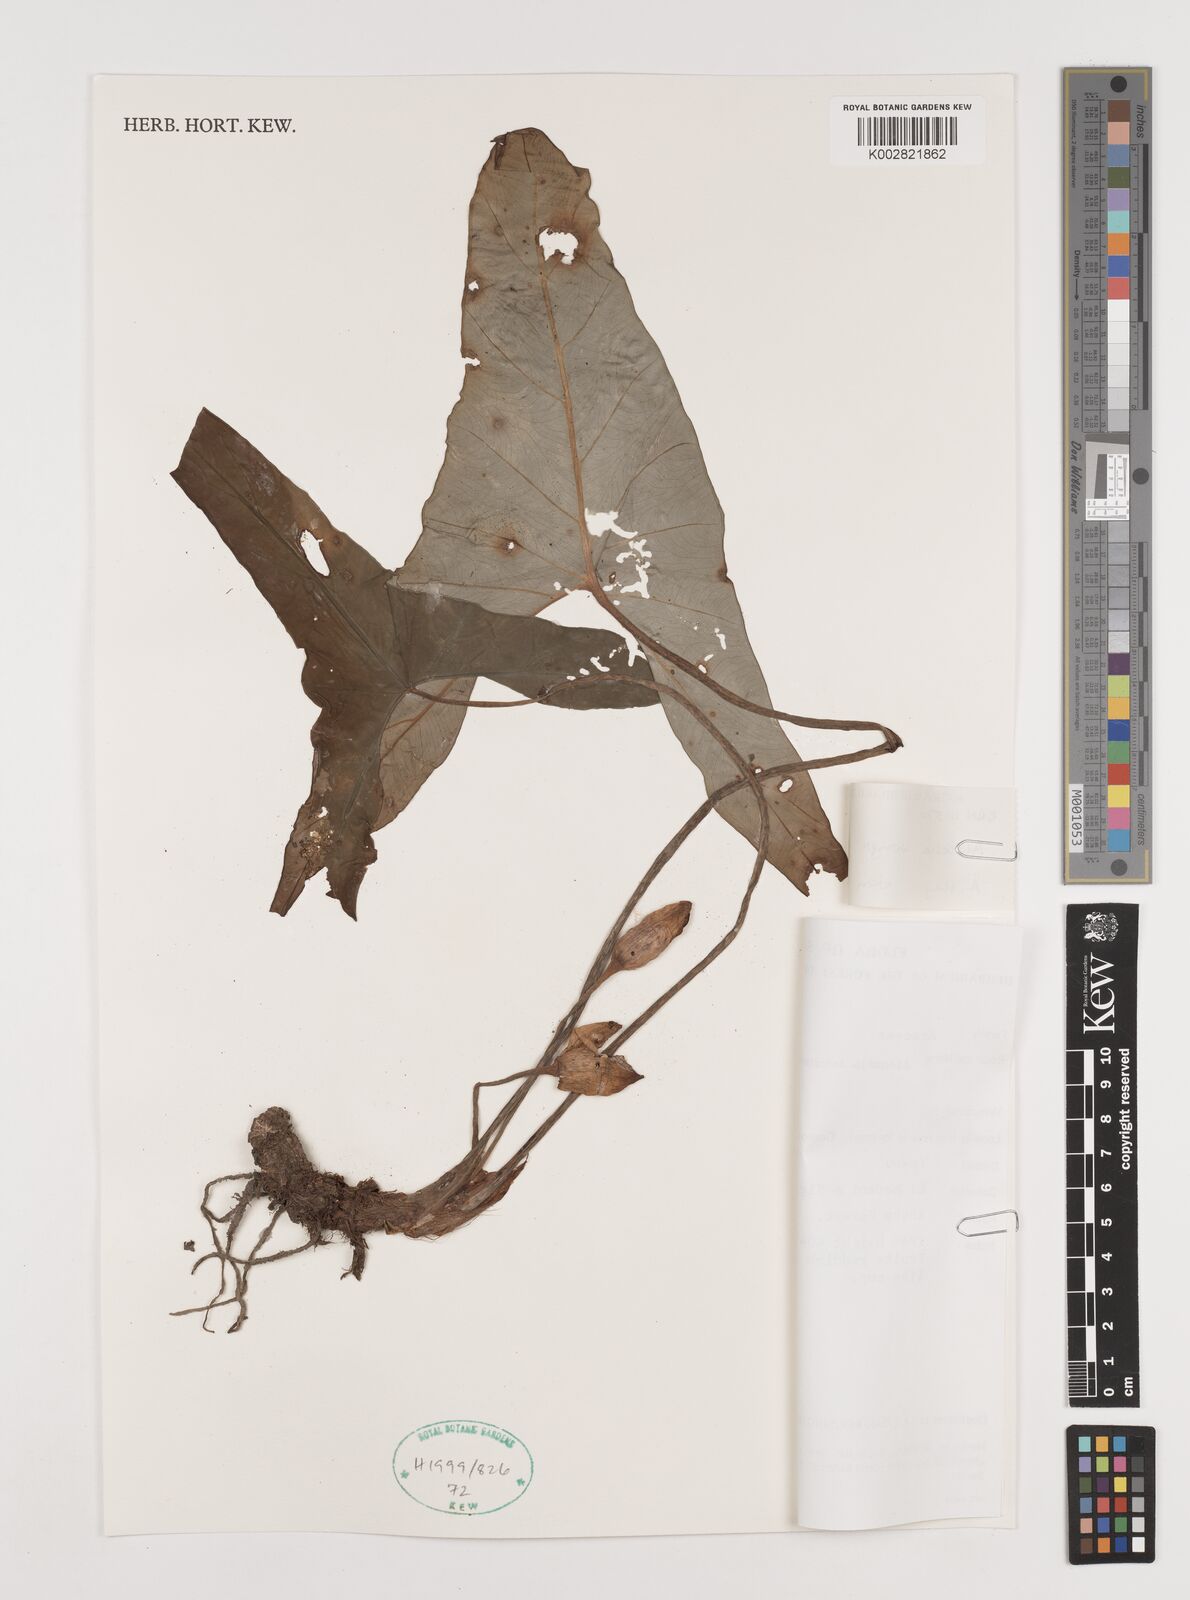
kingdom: Plantae
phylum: Tracheophyta
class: Liliopsida
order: Alismatales
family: Araceae
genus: Alocasia
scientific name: Alocasia wongii
